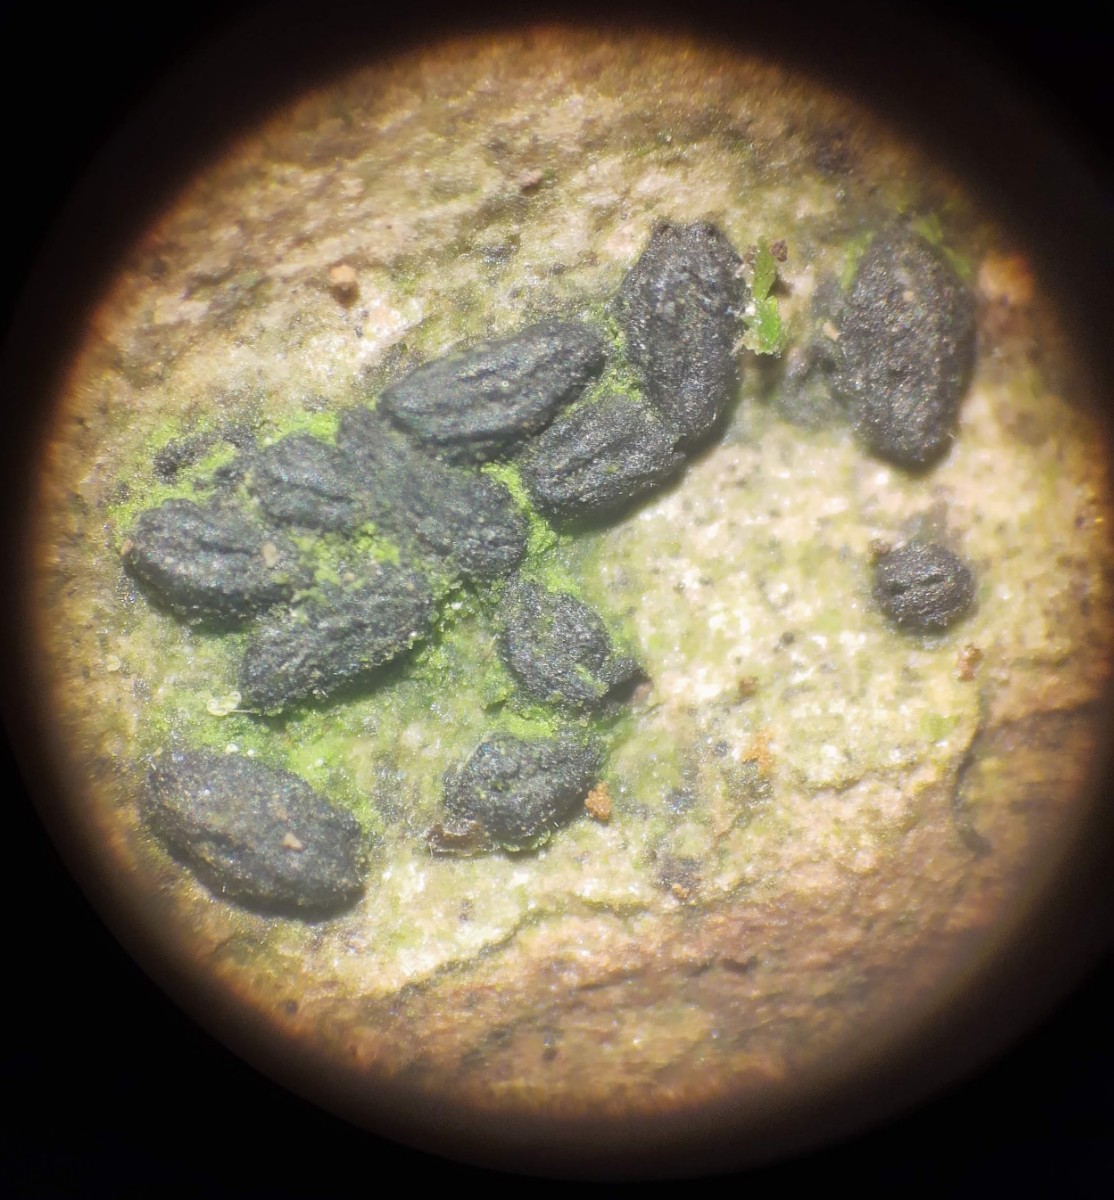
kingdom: Fungi
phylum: Ascomycota
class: Dothideomycetes
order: Hysteriales
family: Hysteriaceae
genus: Hysterium
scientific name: Hysterium pulicare
